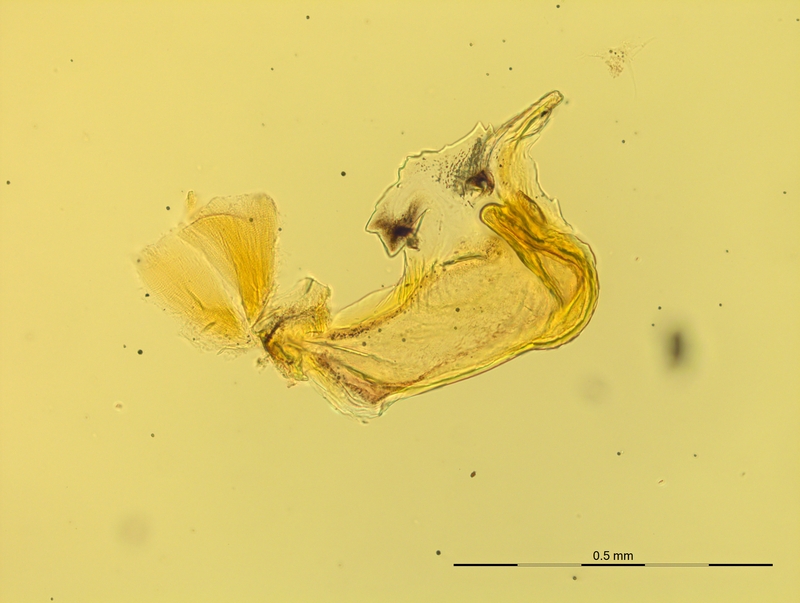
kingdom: Animalia
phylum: Arthropoda
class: Diplopoda
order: Chordeumatida
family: Craspedosomatidae
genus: Craspedosoma
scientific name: Craspedosoma transsilvanicum
